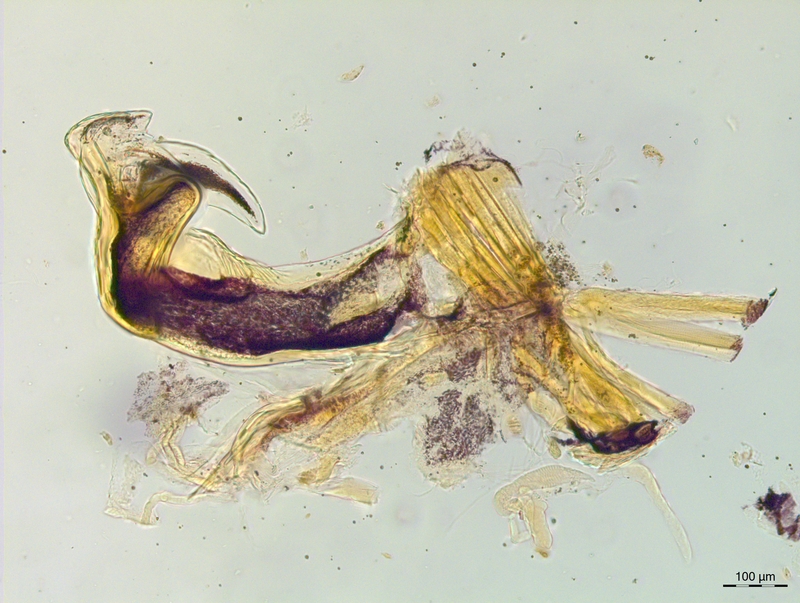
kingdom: Animalia
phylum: Arthropoda
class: Diplopoda
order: Chordeumatida
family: Craspedosomatidae
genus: Craspedosoma
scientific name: Craspedosoma ruborum
